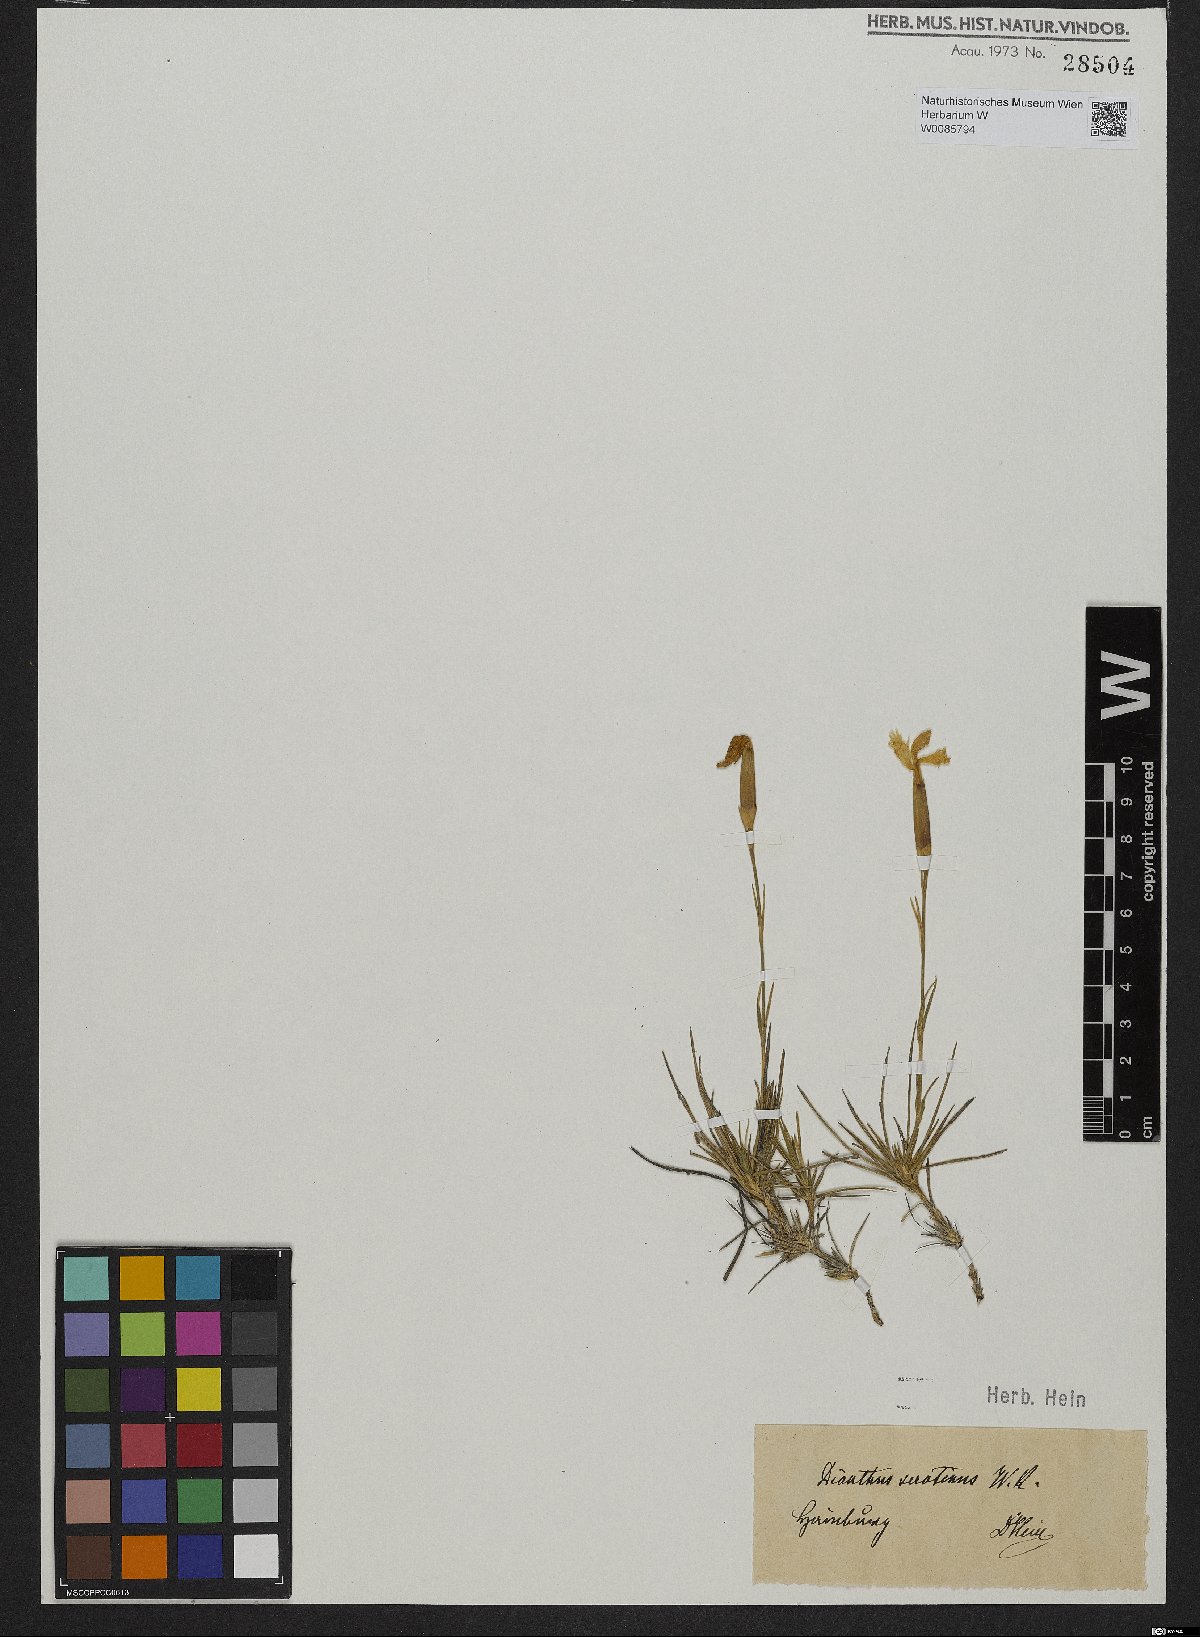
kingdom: Plantae
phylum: Tracheophyta
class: Magnoliopsida
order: Caryophyllales
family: Caryophyllaceae
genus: Dianthus
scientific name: Dianthus serotinus
